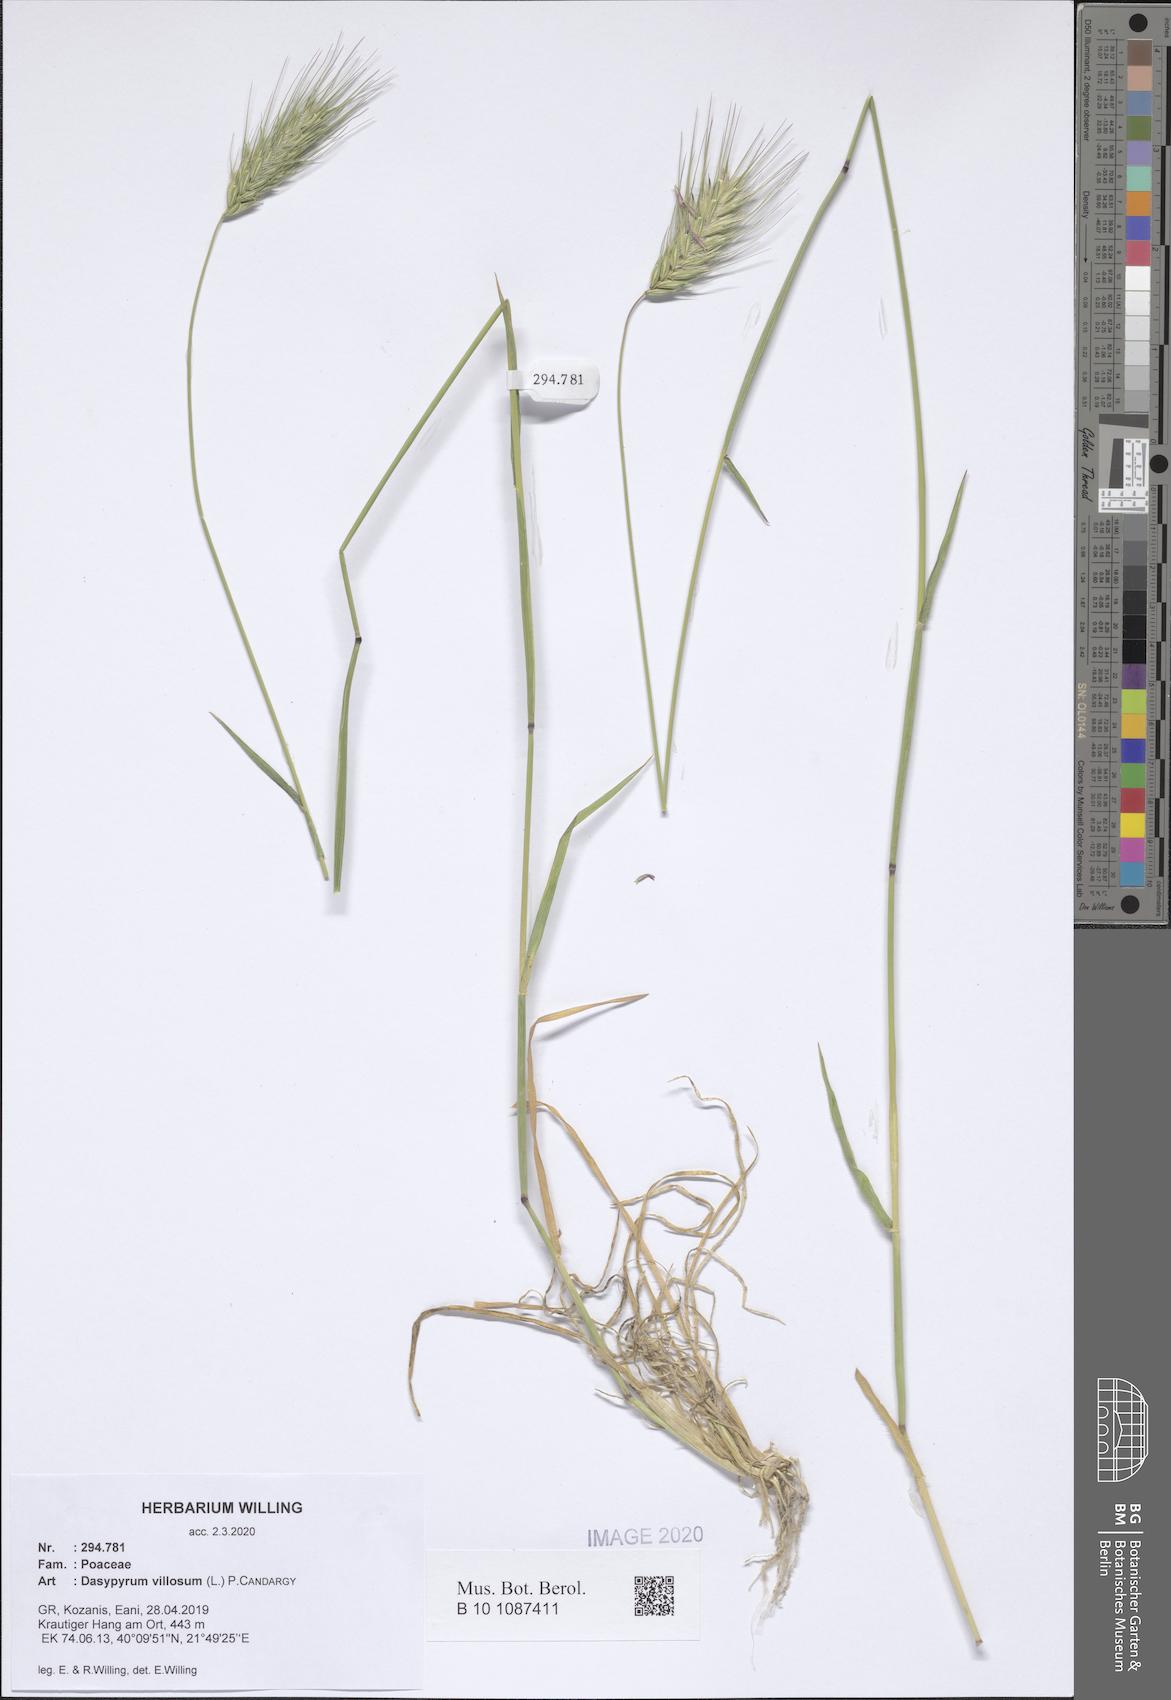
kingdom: Plantae
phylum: Tracheophyta
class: Liliopsida
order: Poales
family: Poaceae
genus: Dasypyrum
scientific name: Dasypyrum villosum
